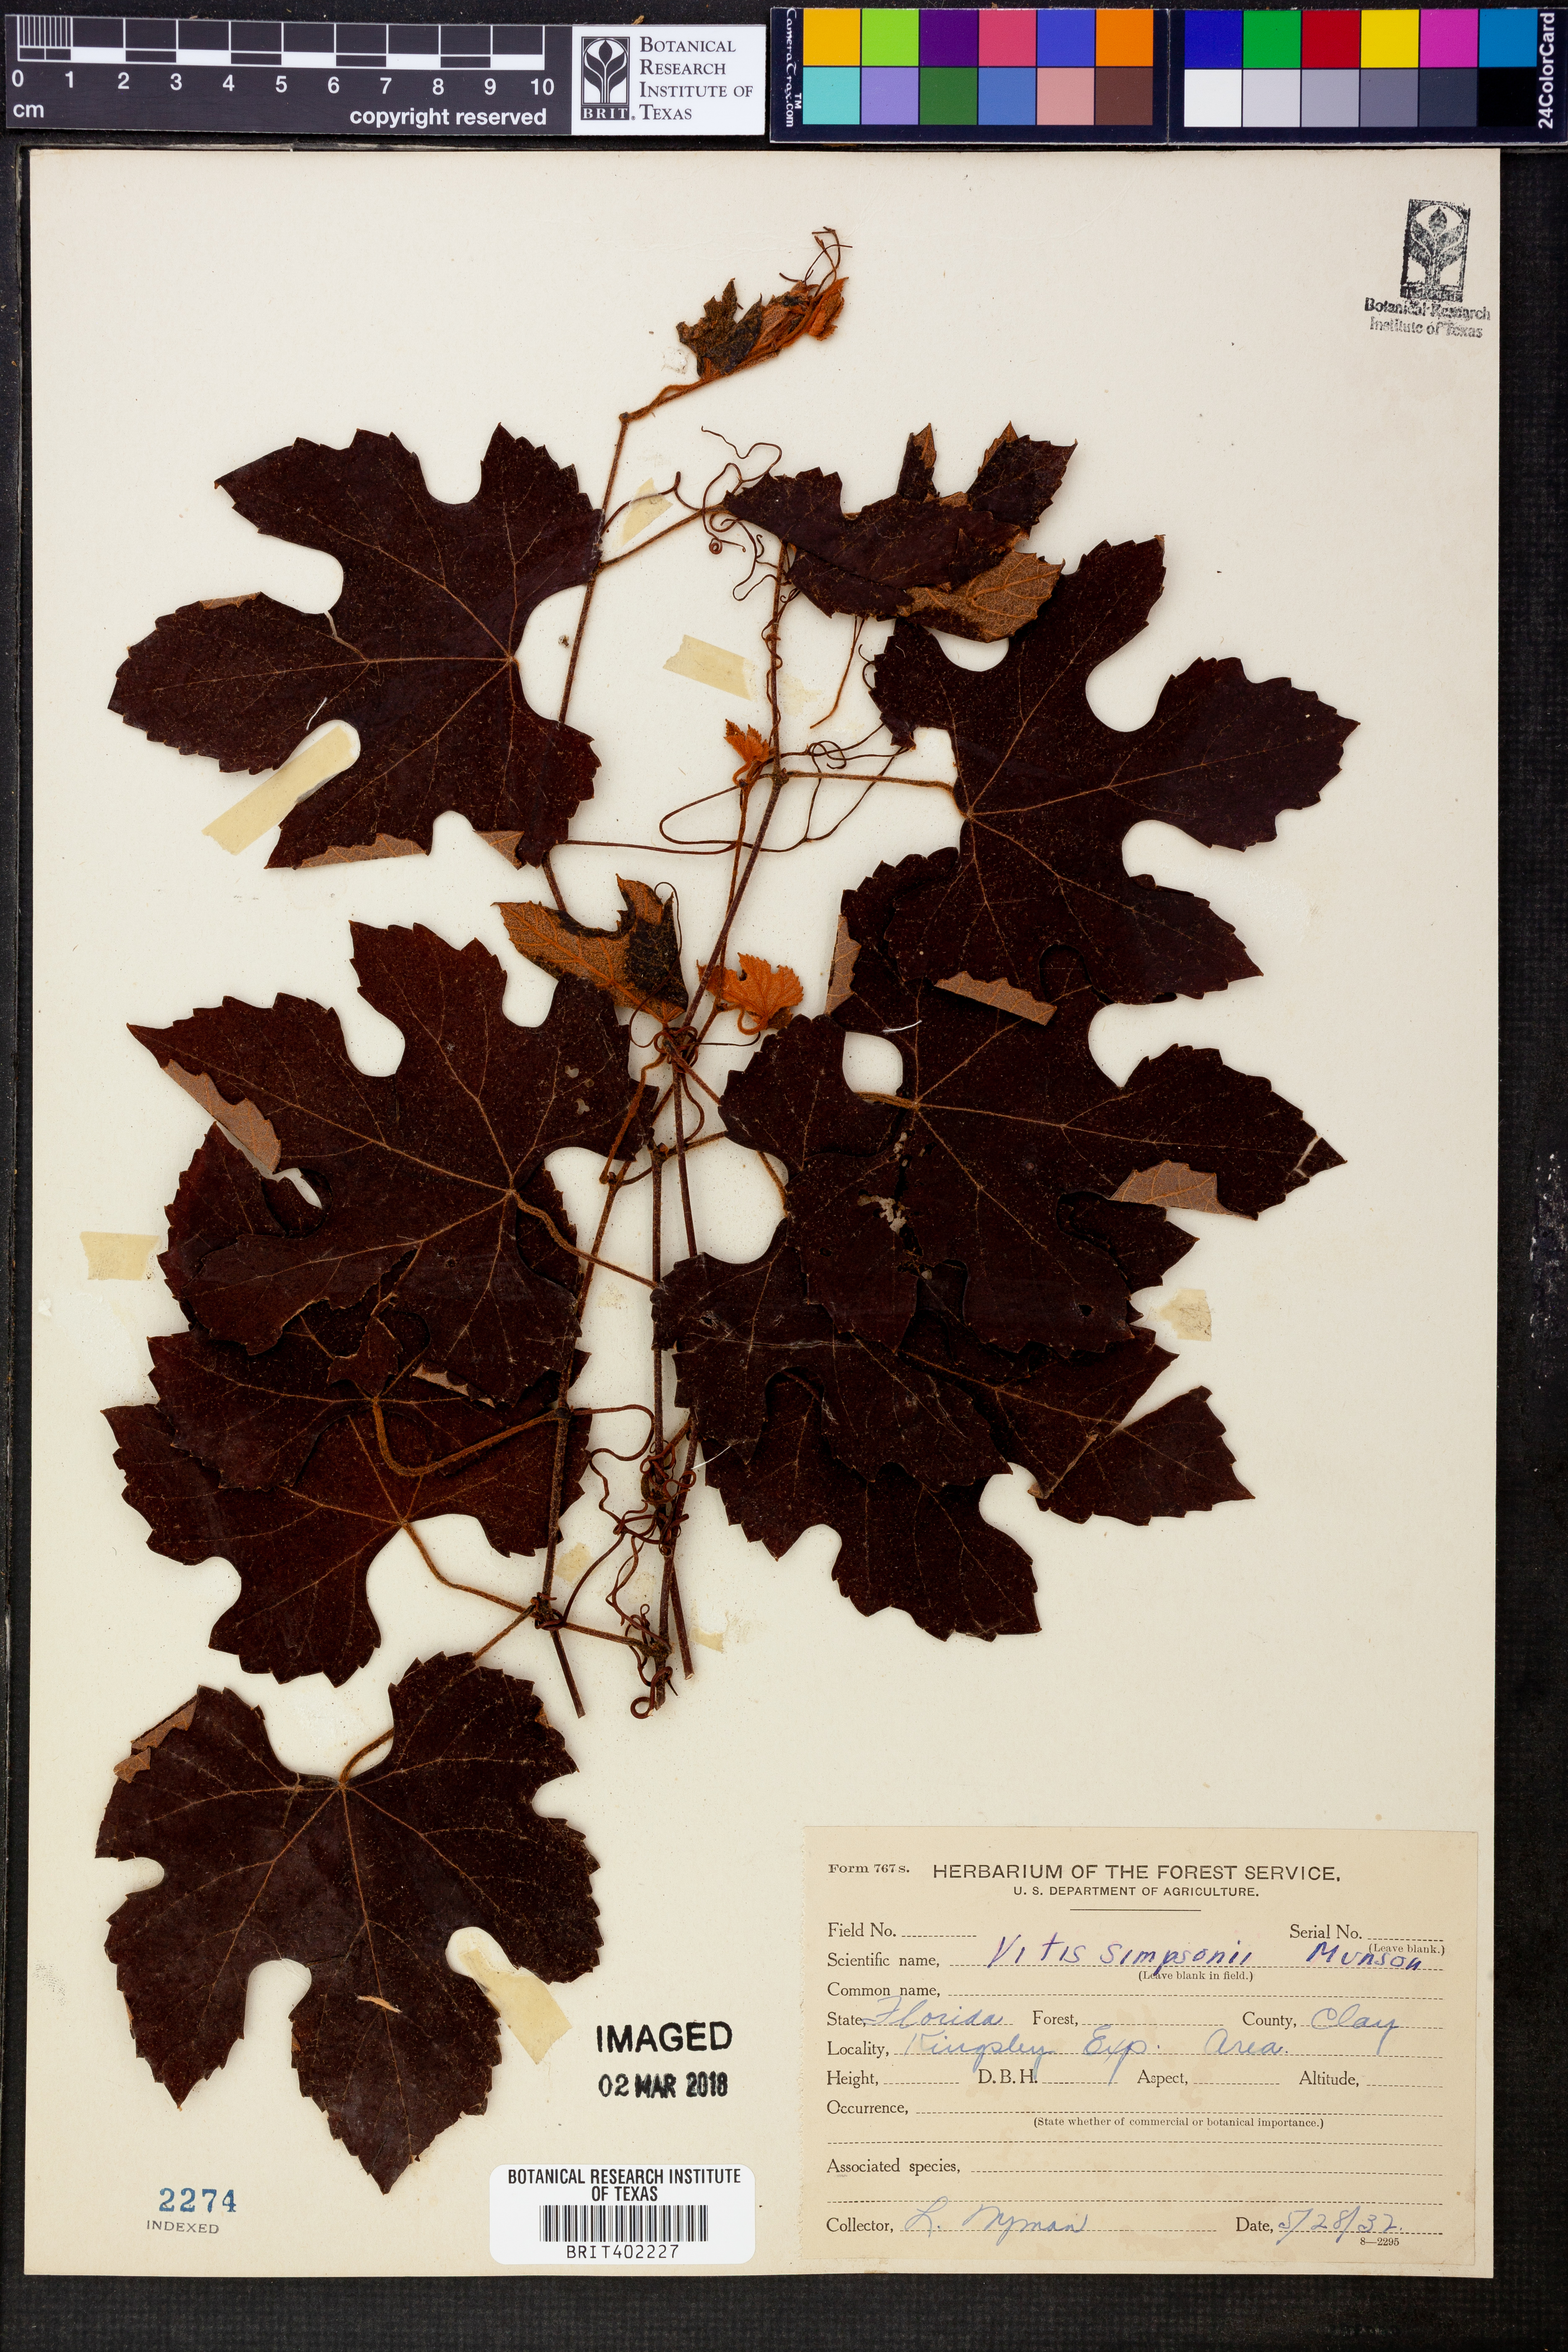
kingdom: Plantae
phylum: Tracheophyta
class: Magnoliopsida
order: Vitales
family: Vitaceae
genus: Vitis
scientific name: Vitis cinerea
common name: Ashy grape
